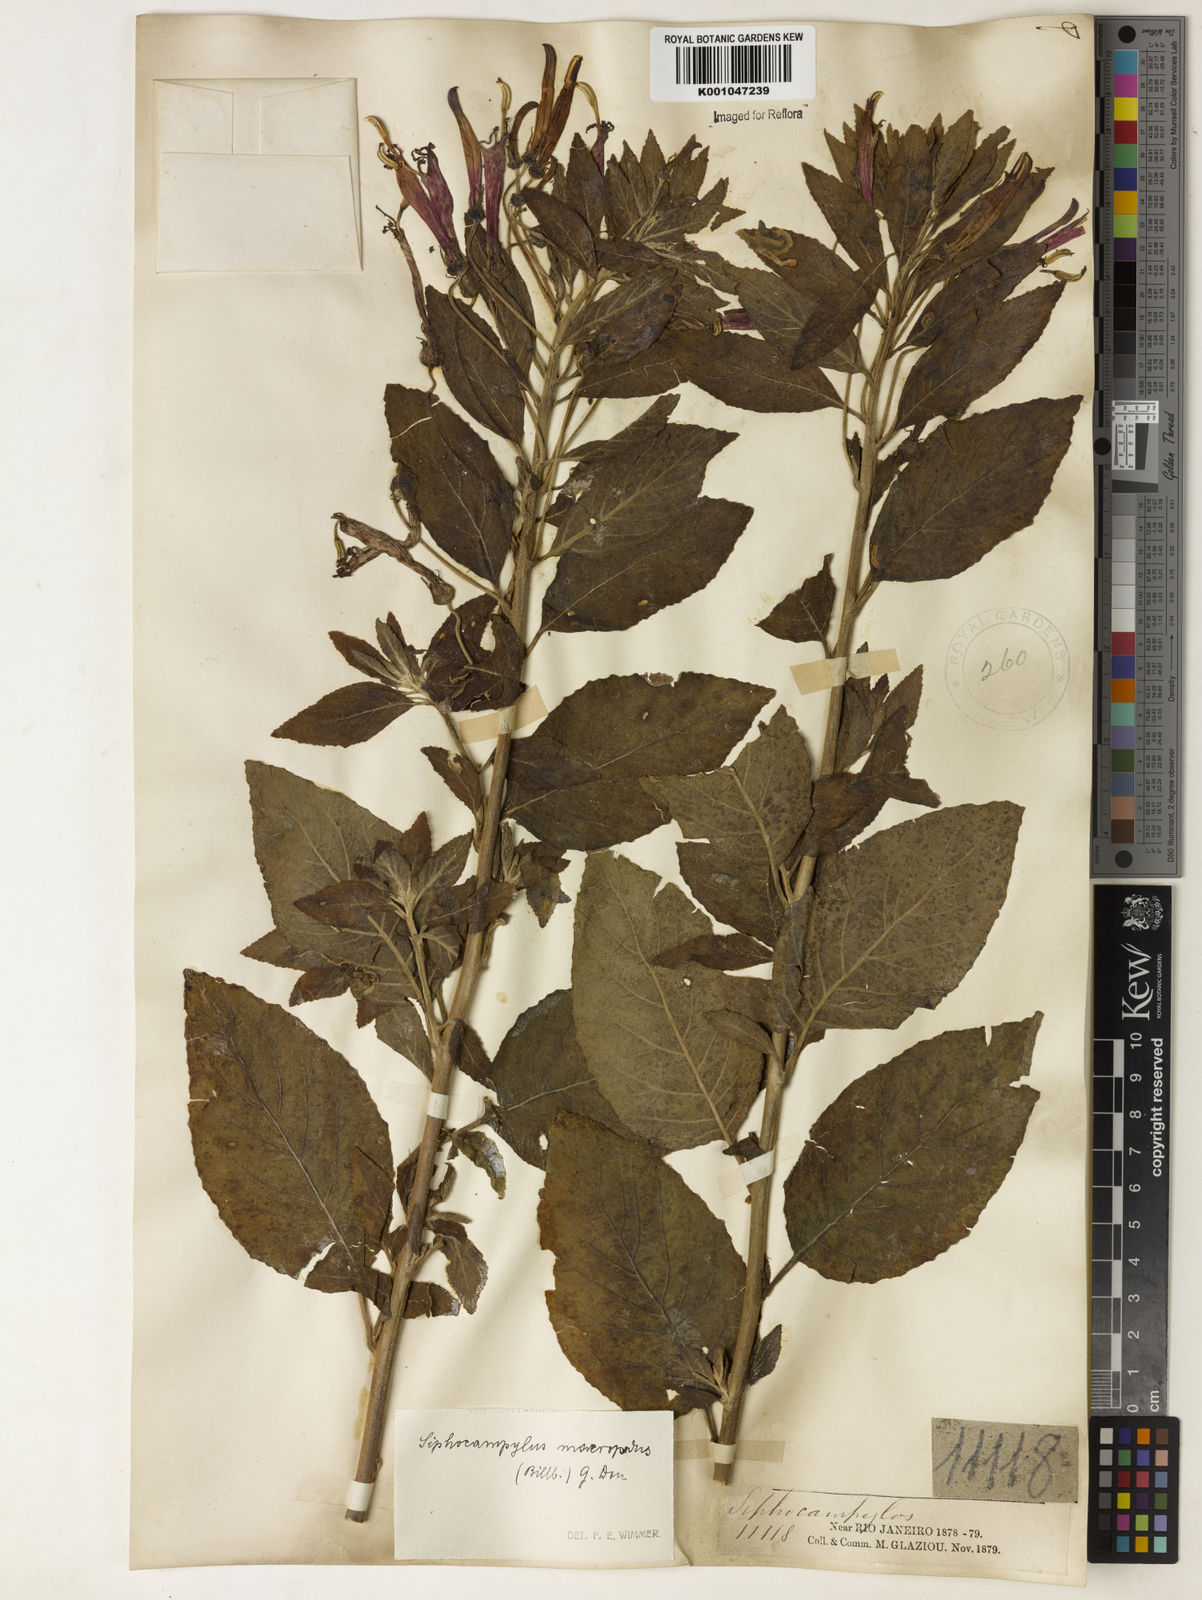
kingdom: Plantae
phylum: Tracheophyta
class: Magnoliopsida
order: Asterales
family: Campanulaceae
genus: Siphocampylus
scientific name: Siphocampylus macropodus
